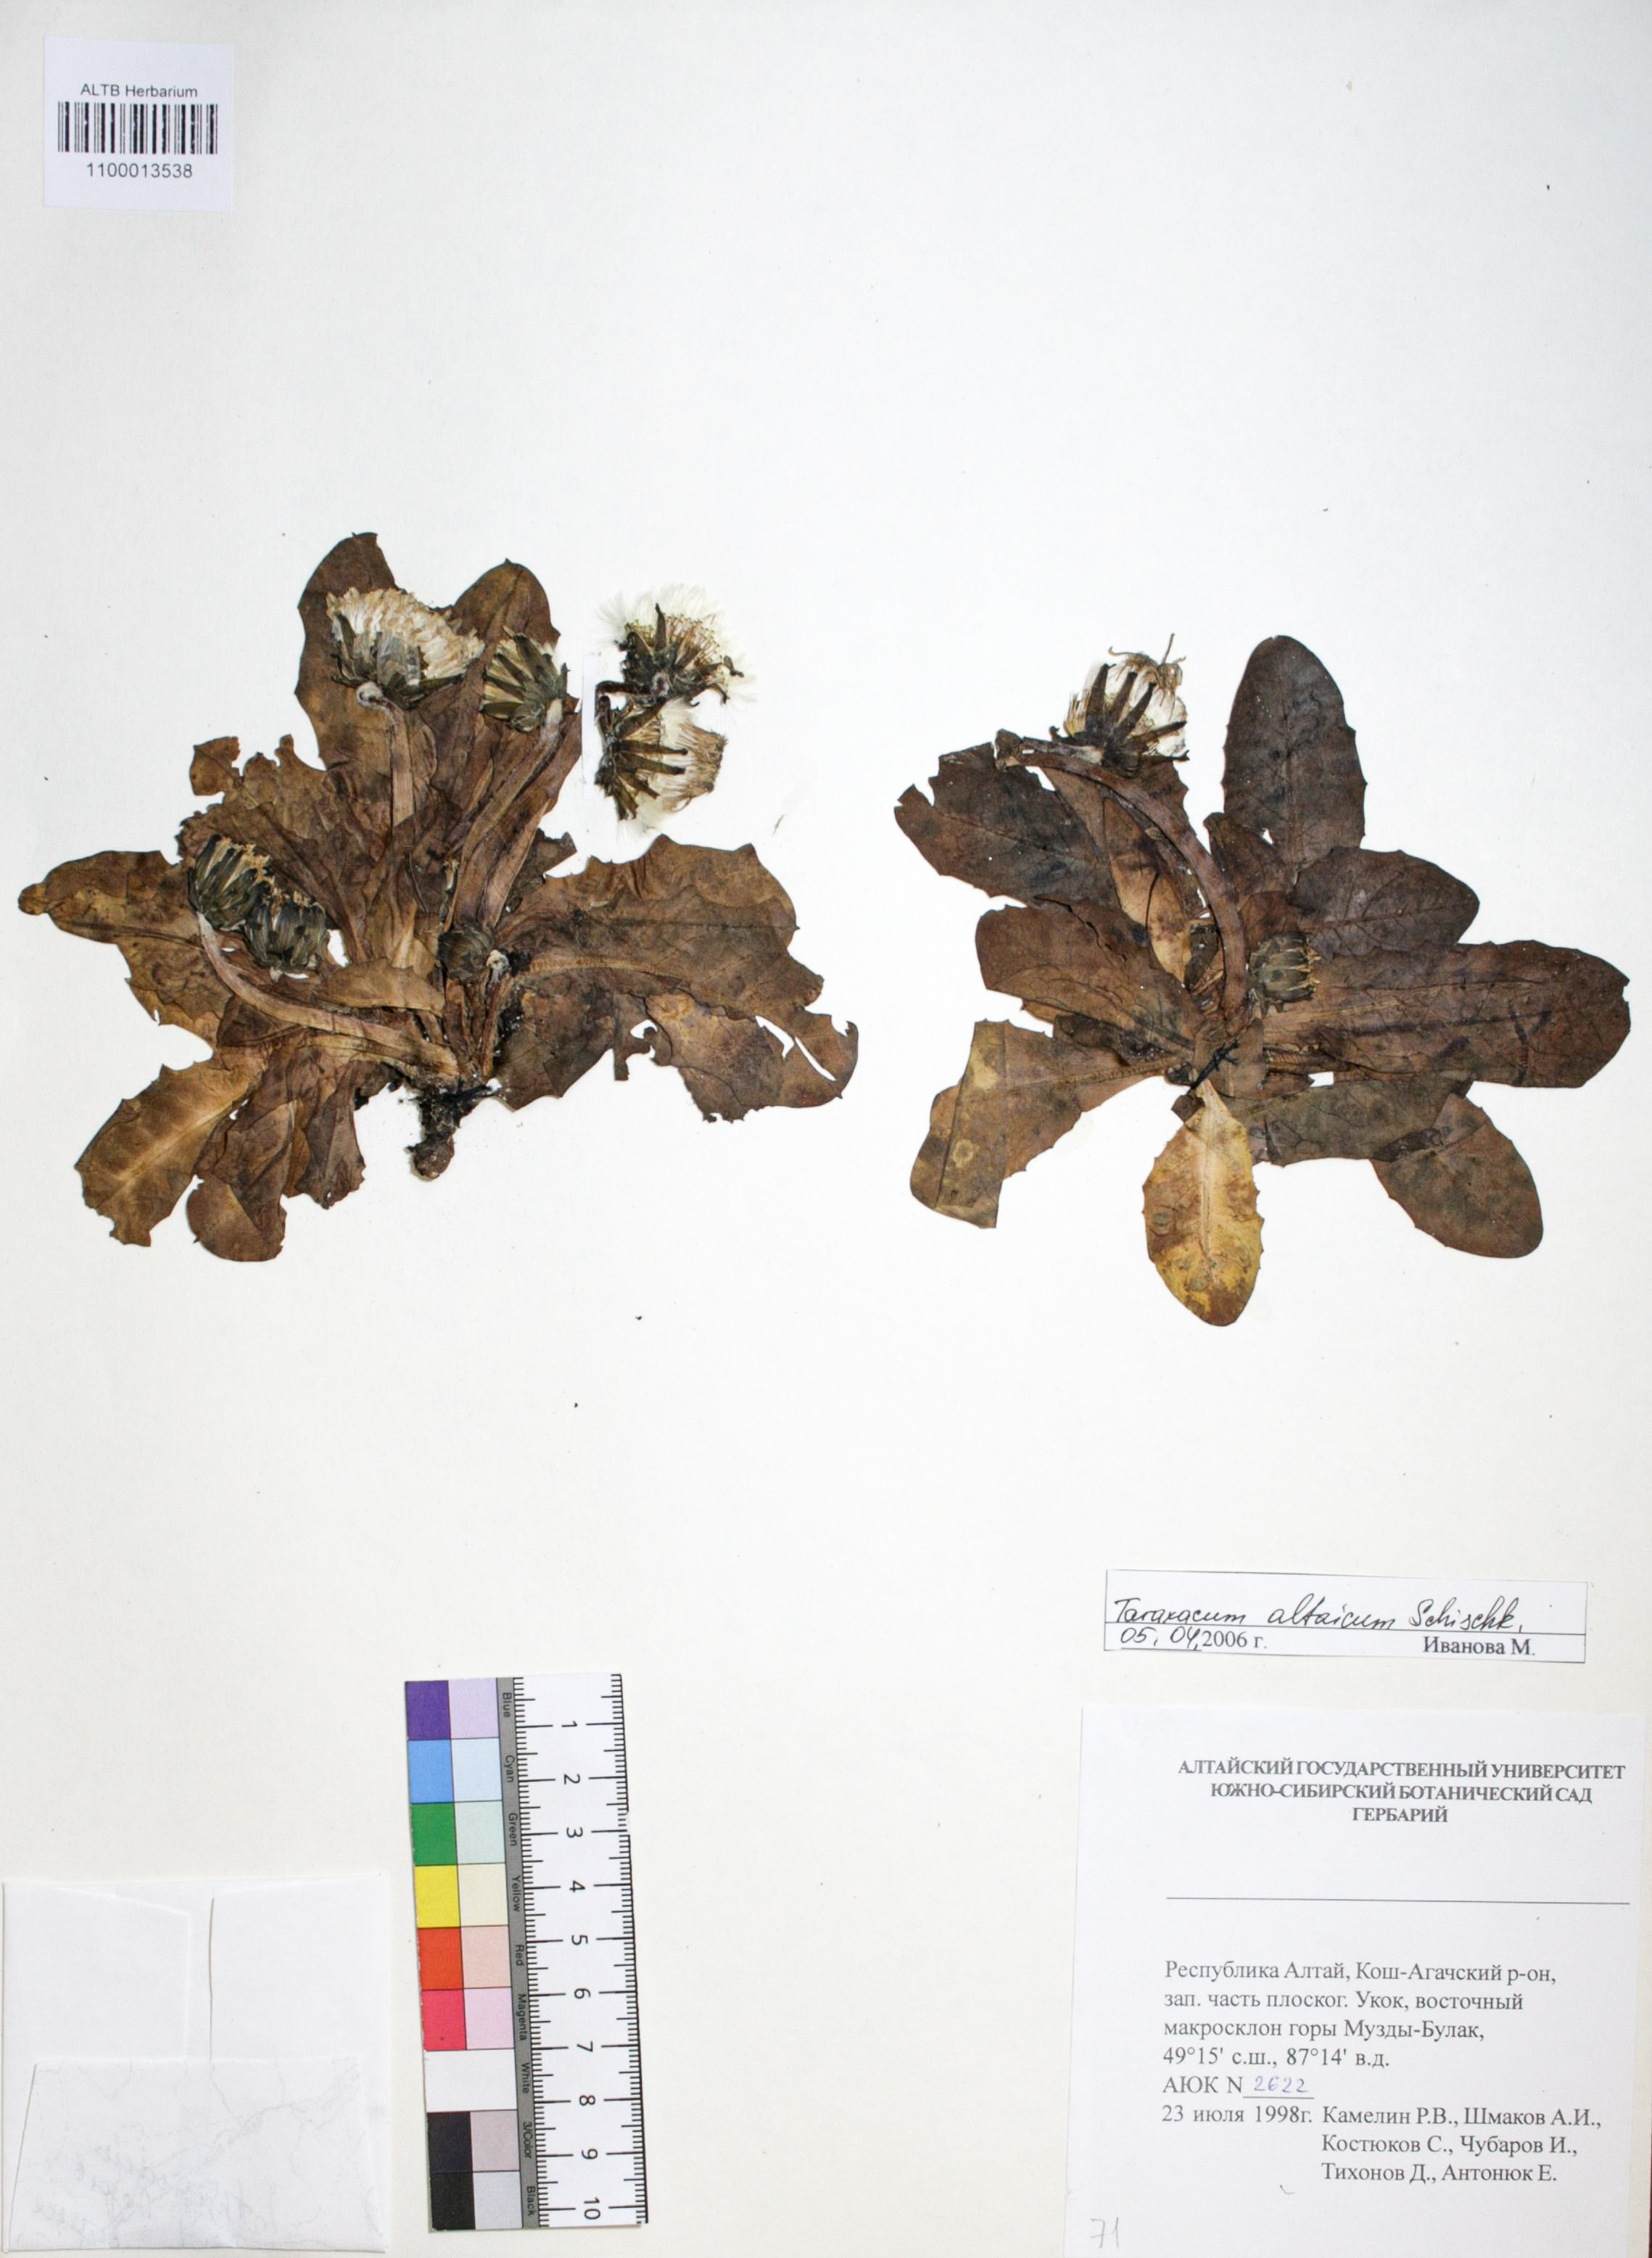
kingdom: Plantae
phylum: Tracheophyta
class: Magnoliopsida
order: Asterales
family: Asteraceae
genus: Taraxacum
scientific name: Taraxacum ceratophorum
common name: Horn-bearing dandelion
